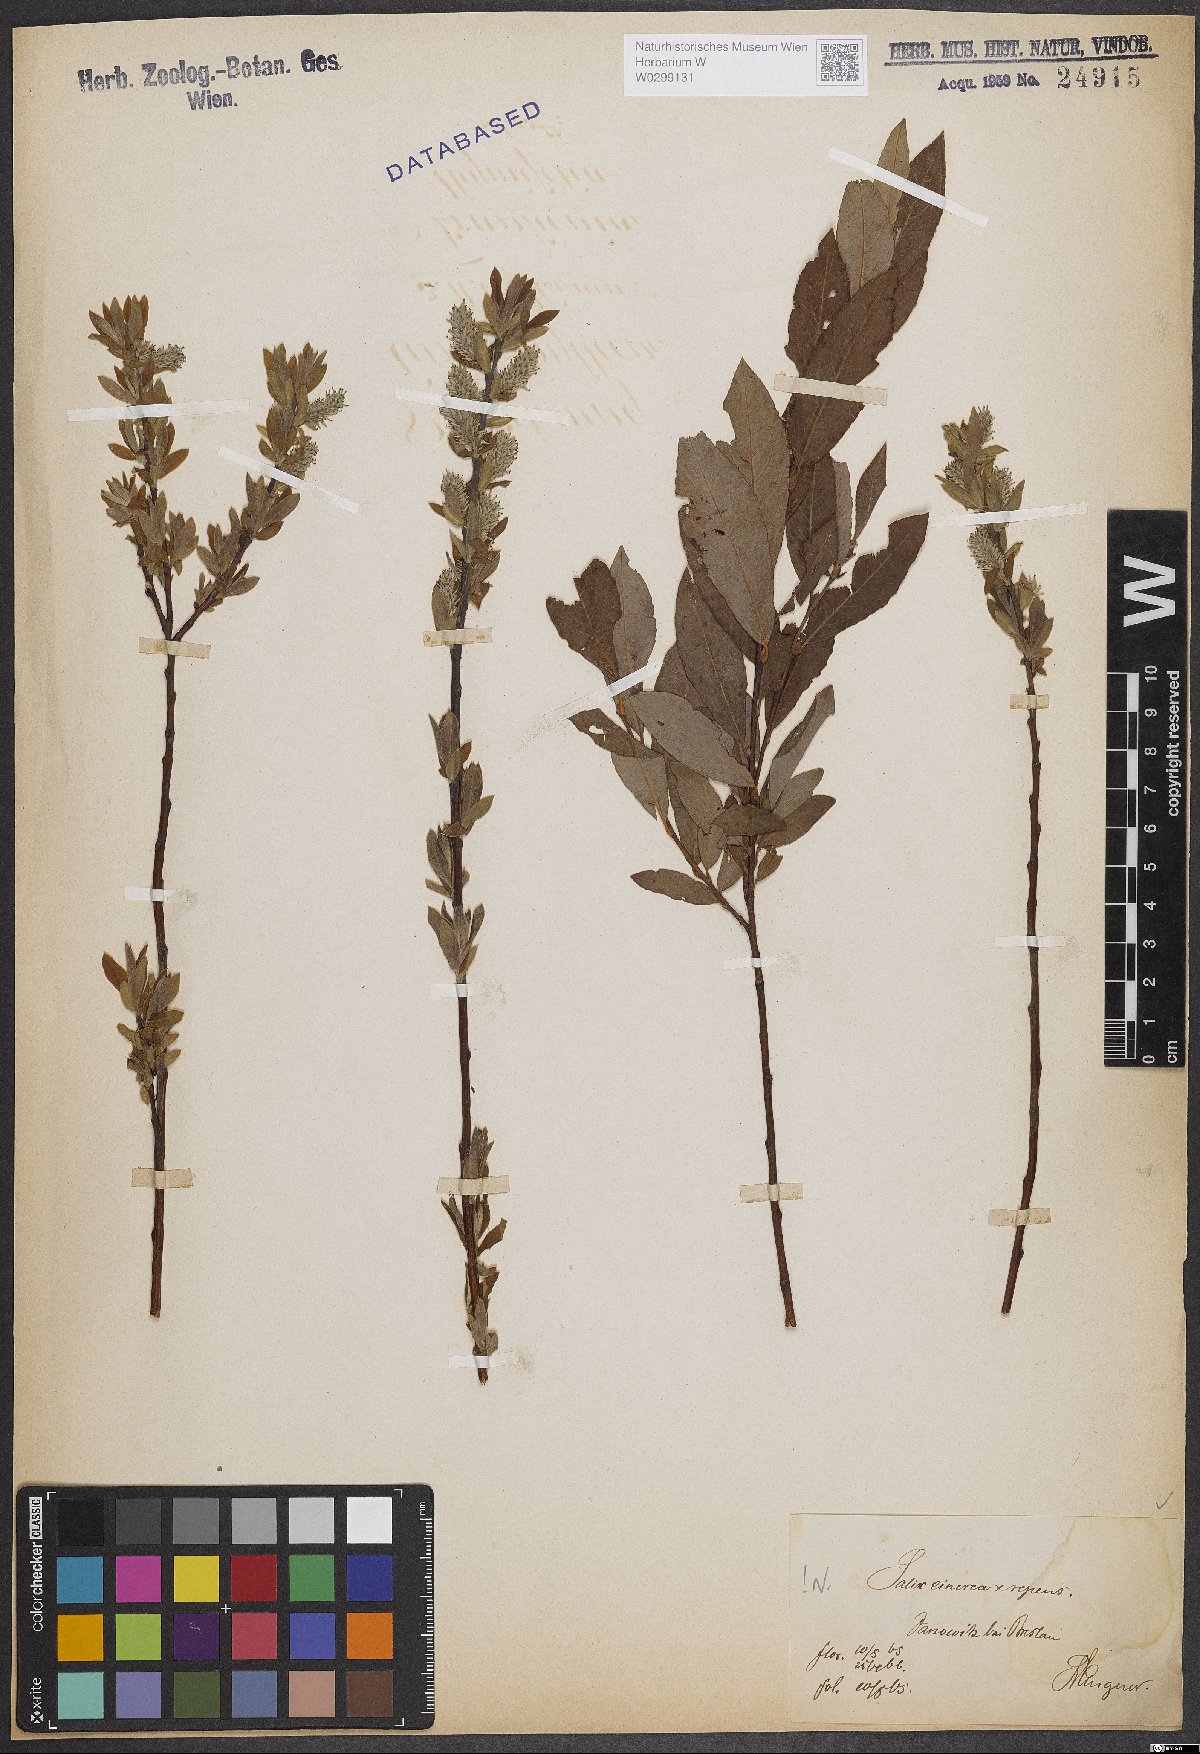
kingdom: Plantae
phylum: Tracheophyta
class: Magnoliopsida
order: Malpighiales
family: Salicaceae
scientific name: Salicaceae
